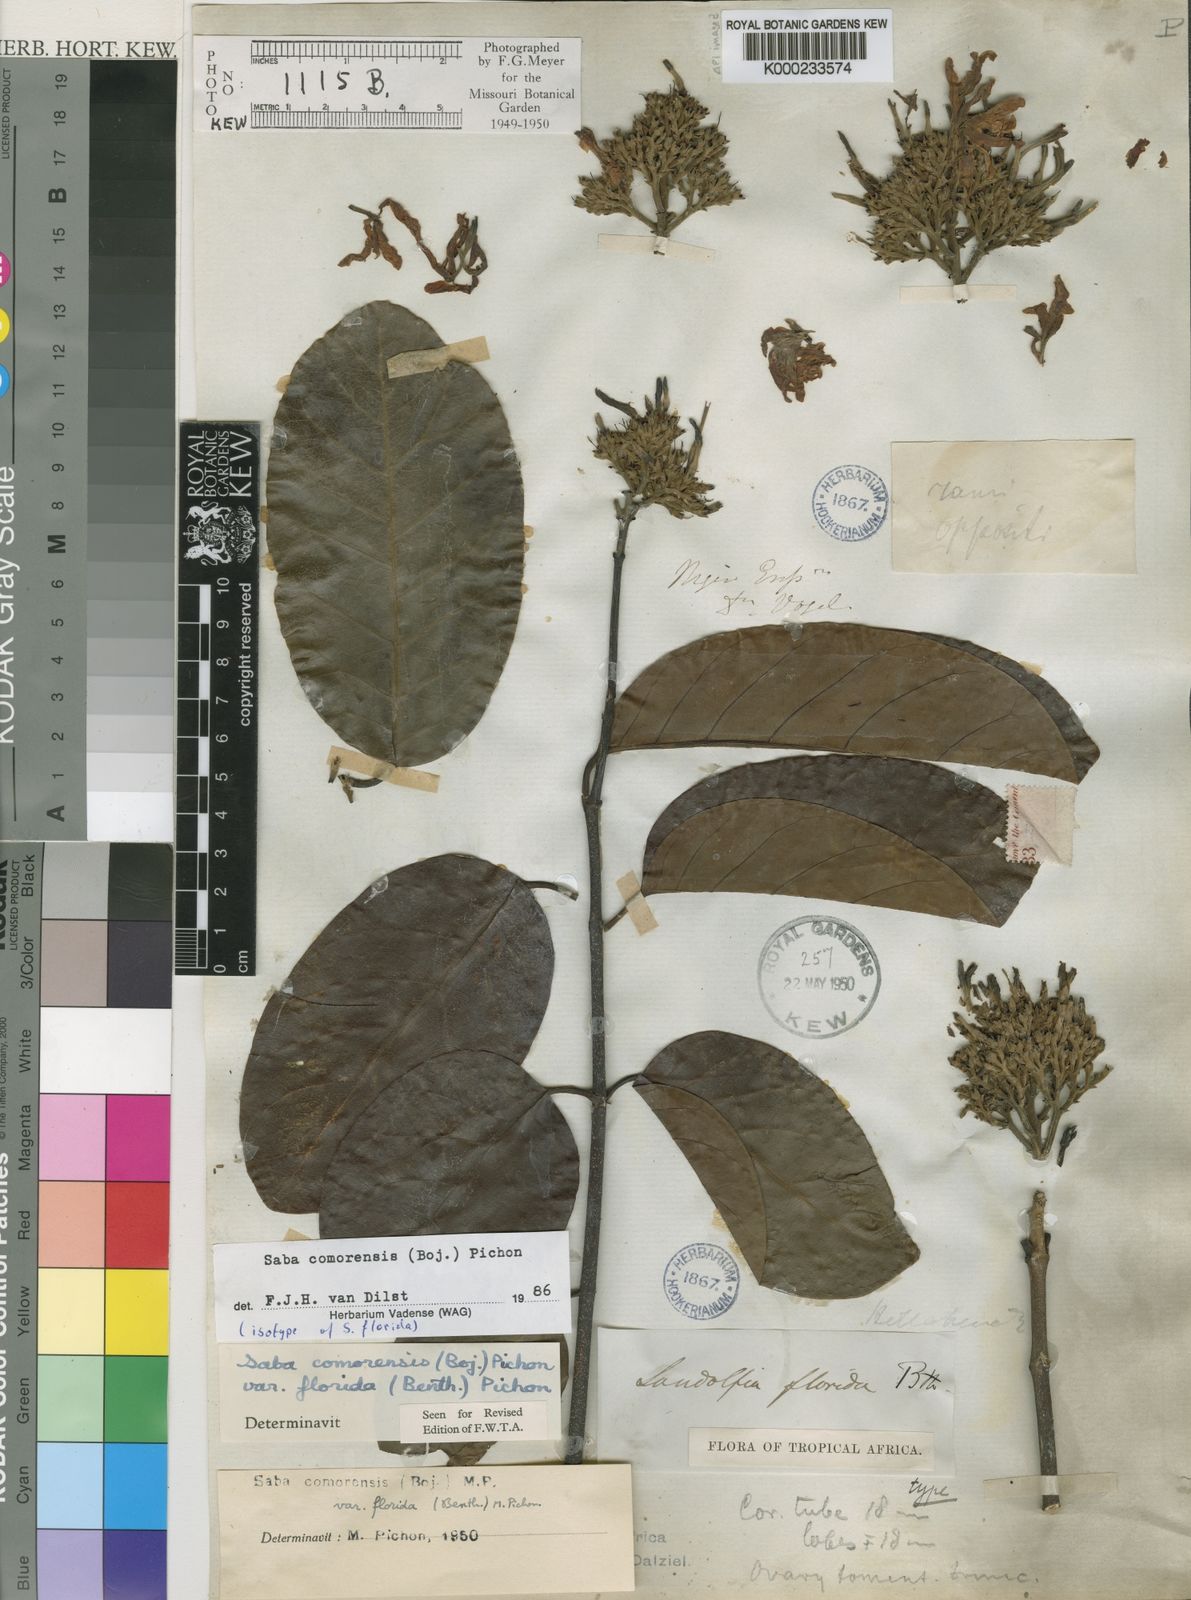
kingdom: Plantae
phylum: Tracheophyta
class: Magnoliopsida
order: Gentianales
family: Apocynaceae
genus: Saba
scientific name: Saba comorensis
